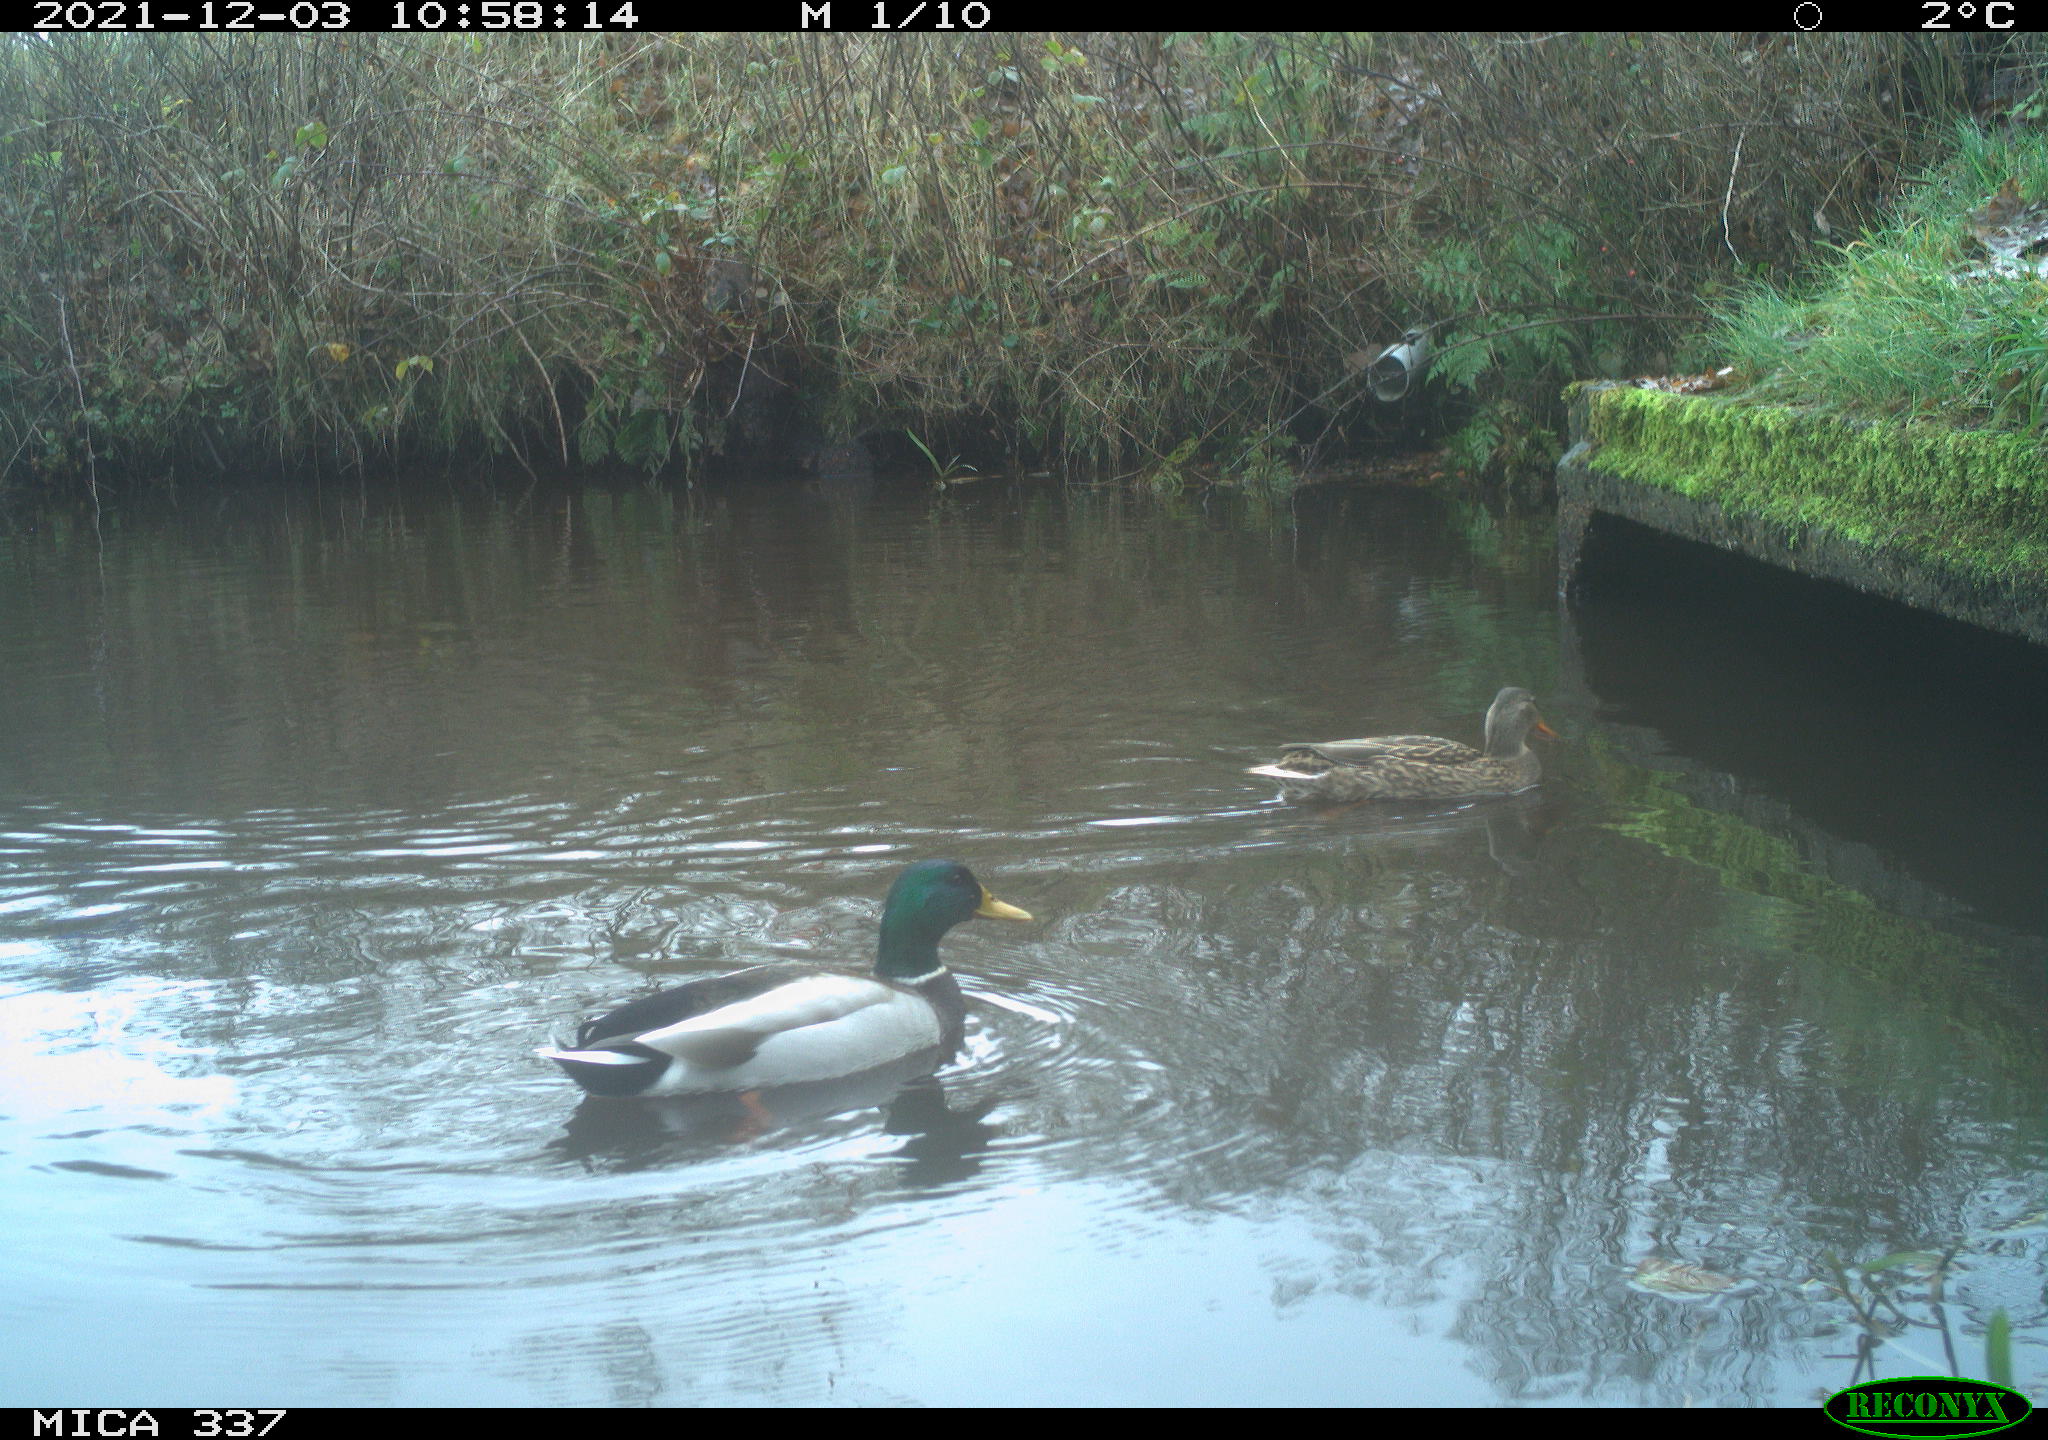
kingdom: Animalia
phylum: Chordata
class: Aves
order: Anseriformes
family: Anatidae
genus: Anas
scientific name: Anas platyrhynchos
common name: Mallard
